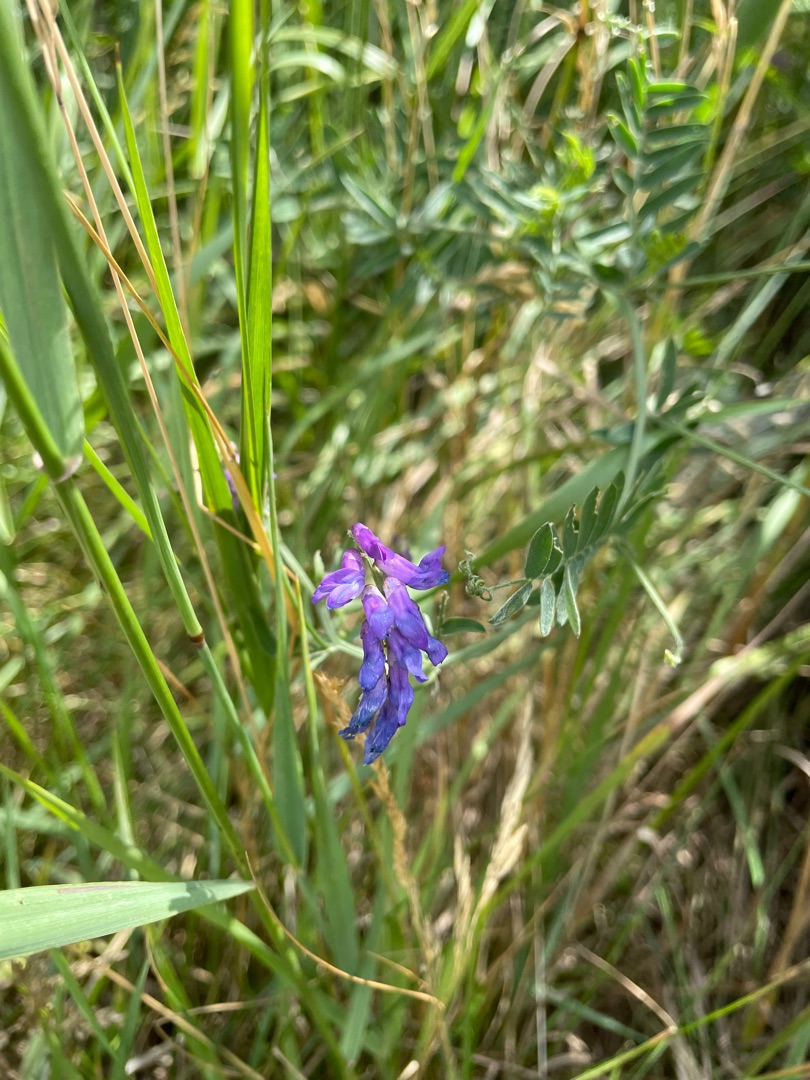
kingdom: Plantae
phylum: Tracheophyta
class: Magnoliopsida
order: Fabales
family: Fabaceae
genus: Vicia
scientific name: Vicia cracca
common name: Muse-vikke
